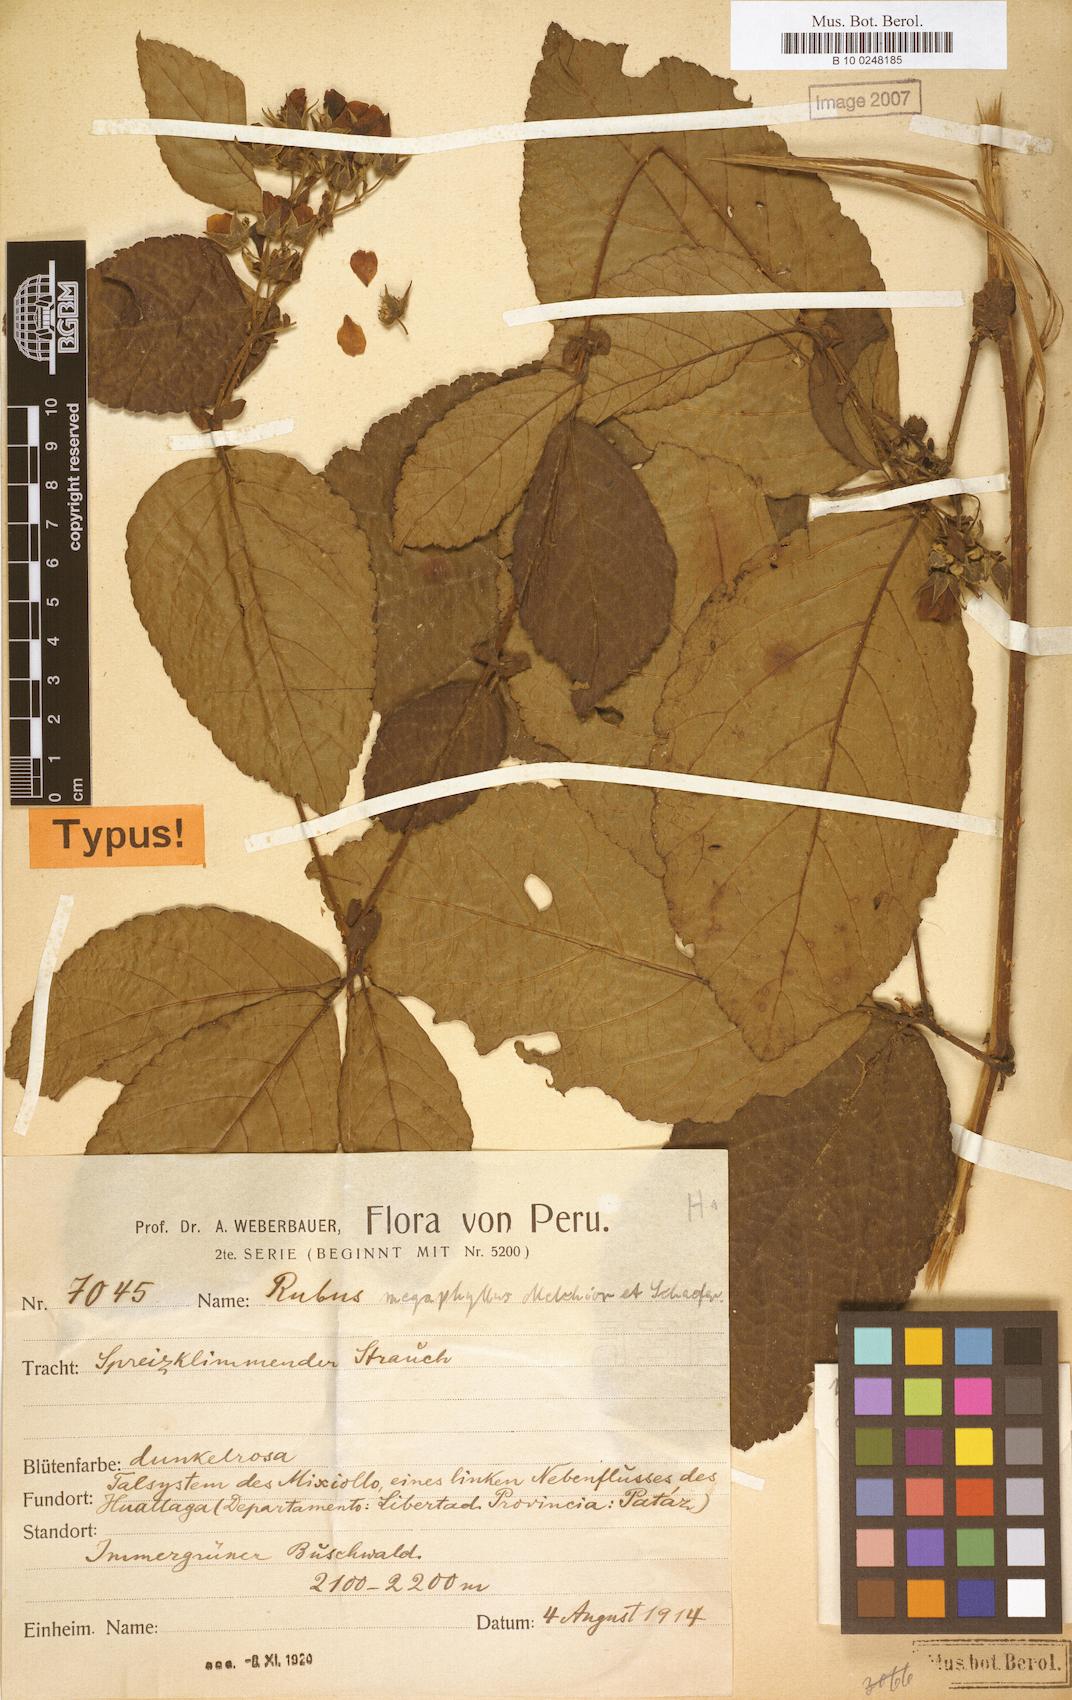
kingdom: Plantae
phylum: Tracheophyta
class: Magnoliopsida
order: Rosales
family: Rosaceae
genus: Rubus
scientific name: Rubus macrophyllus
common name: Largeleaf blackberry
